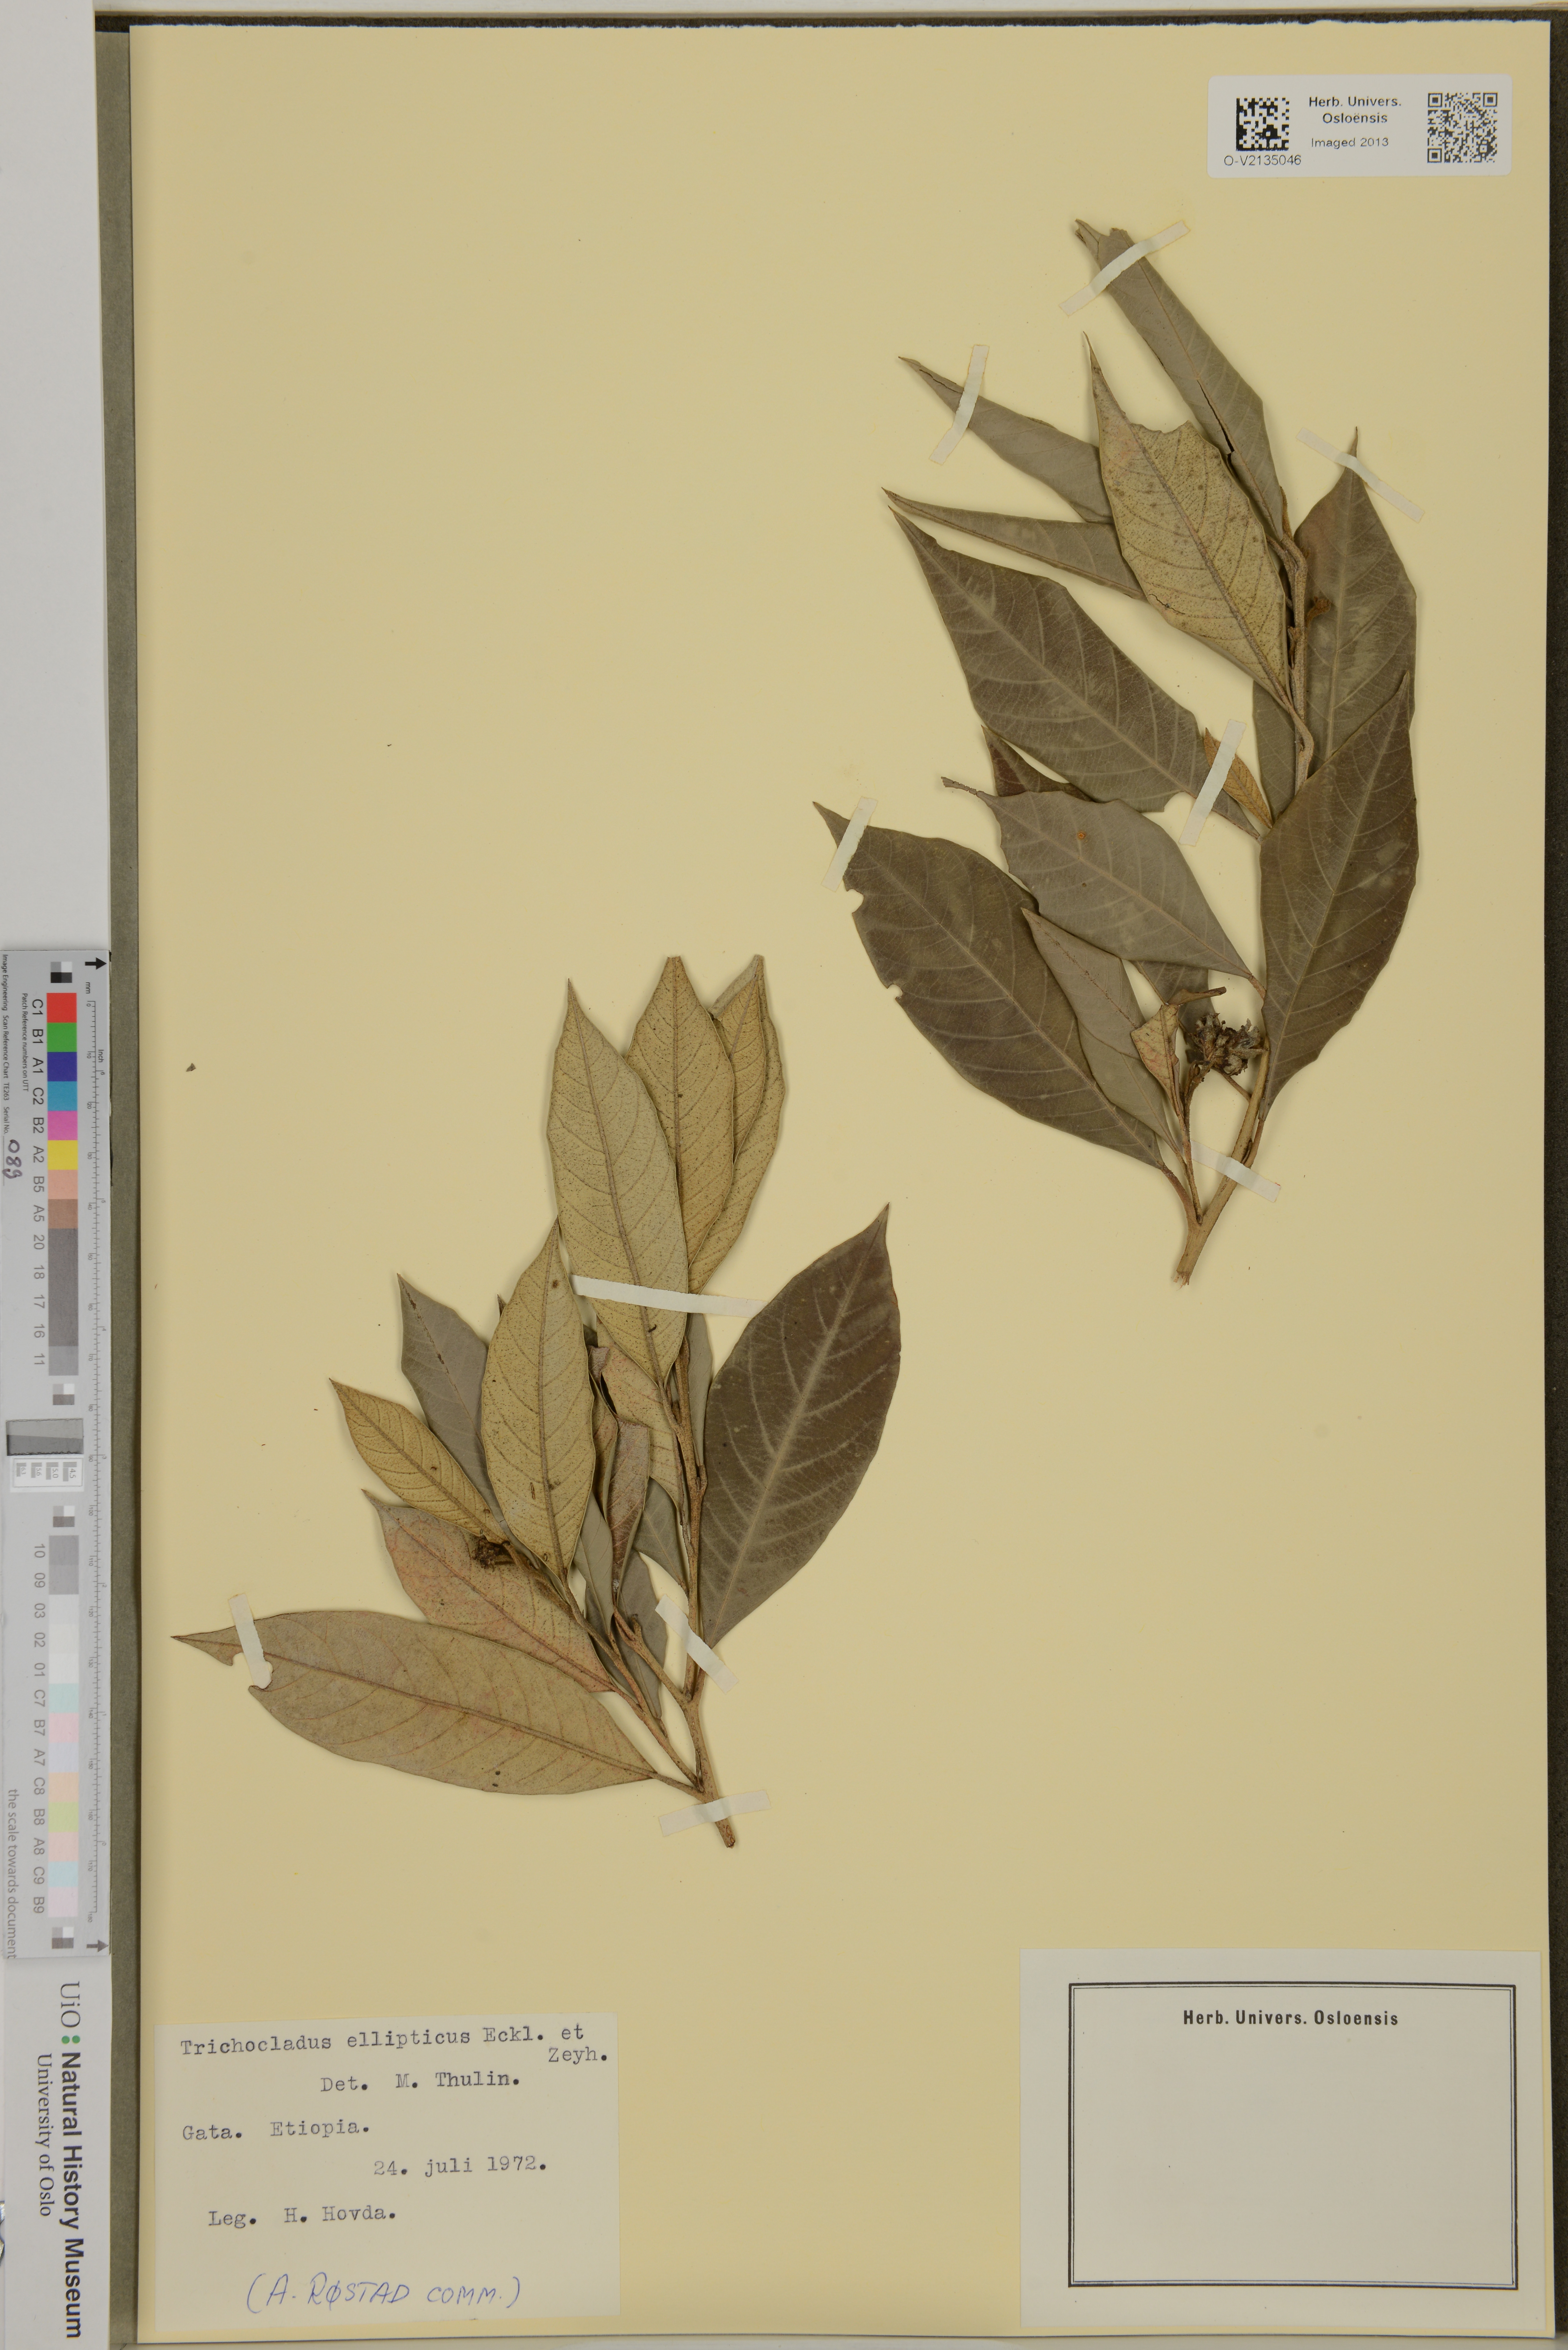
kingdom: Plantae
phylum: Tracheophyta
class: Magnoliopsida
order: Saxifragales
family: Hamamelidaceae
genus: Trichocladus
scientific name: Trichocladus ellipticus
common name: White witch-hazel
